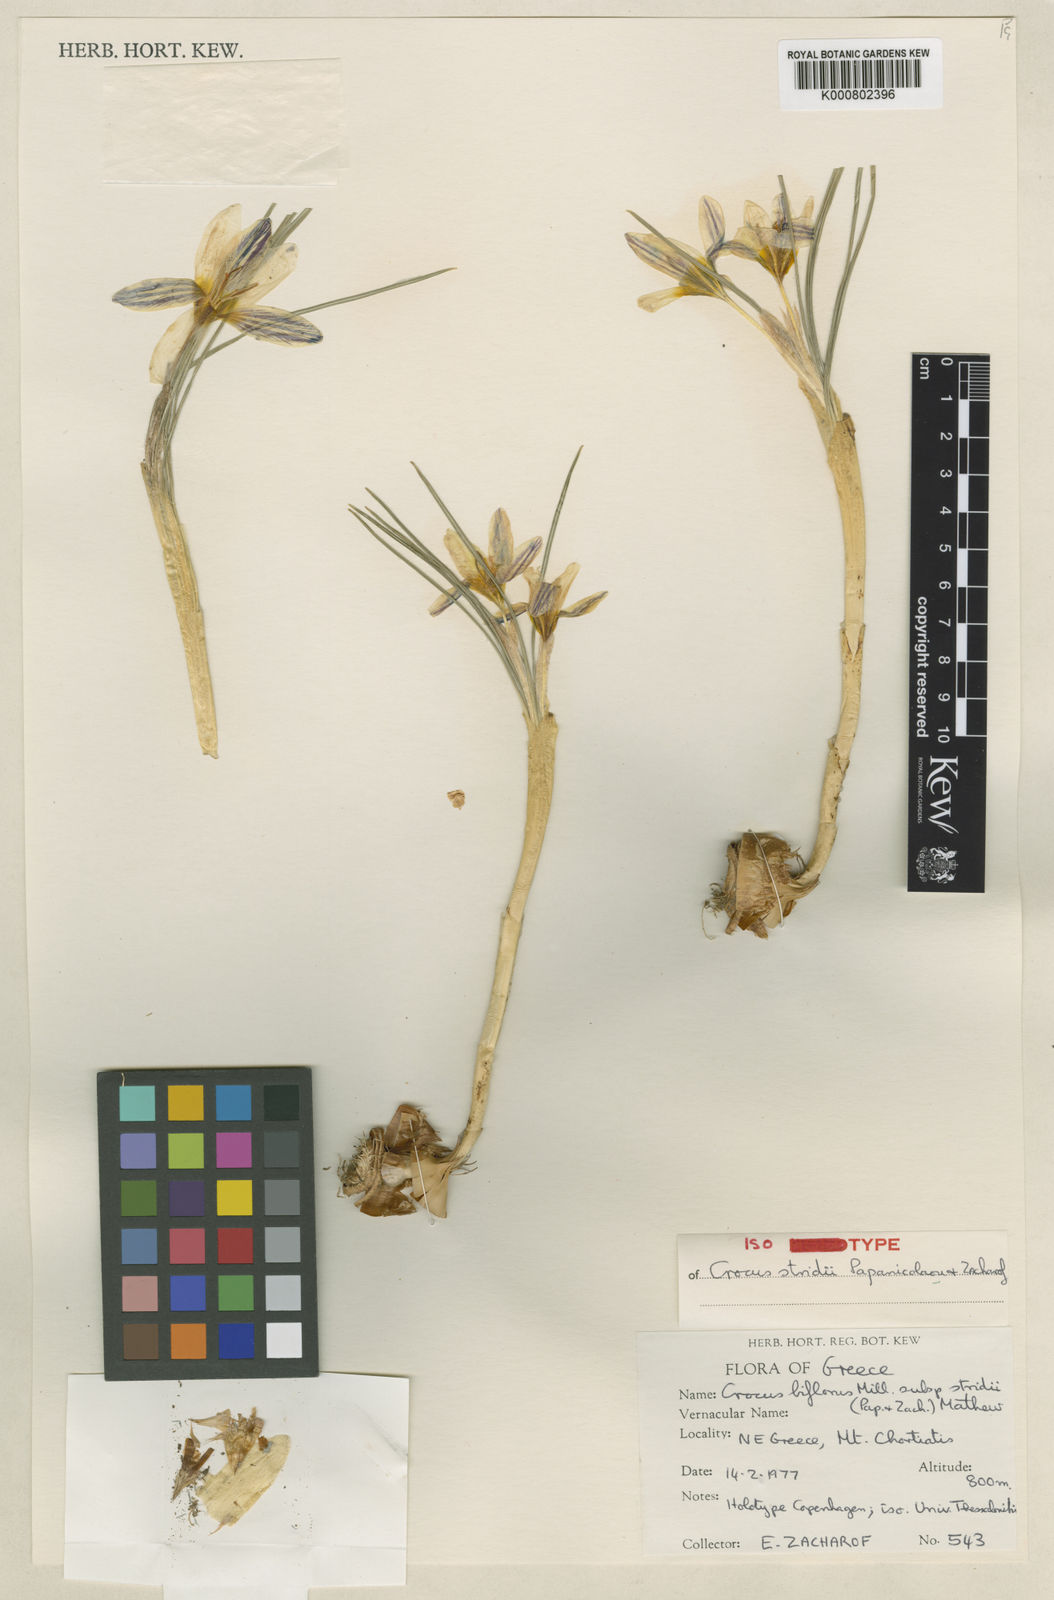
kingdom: Plantae
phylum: Tracheophyta
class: Liliopsida
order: Asparagales
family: Iridaceae
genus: Crocus
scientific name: Crocus stridii
